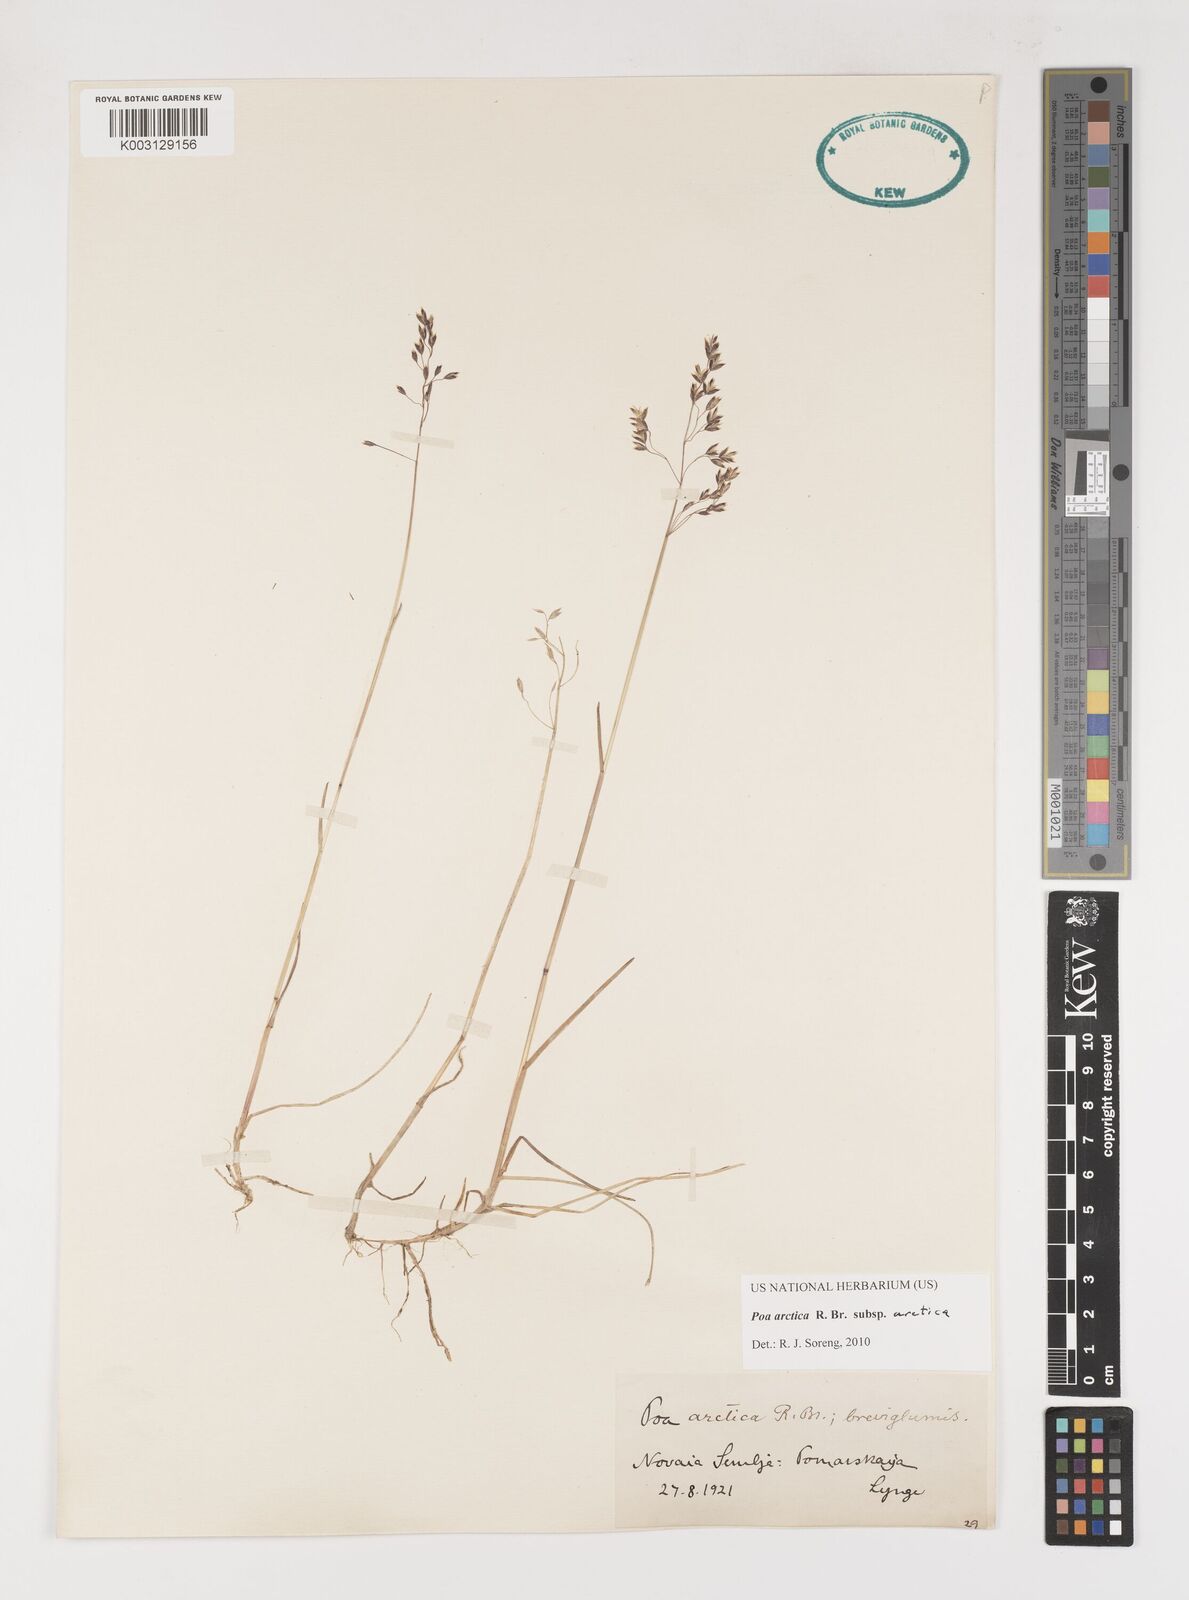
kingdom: Plantae
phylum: Tracheophyta
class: Liliopsida
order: Poales
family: Poaceae
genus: Poa
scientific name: Poa arctica
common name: Arctic bluegrass
